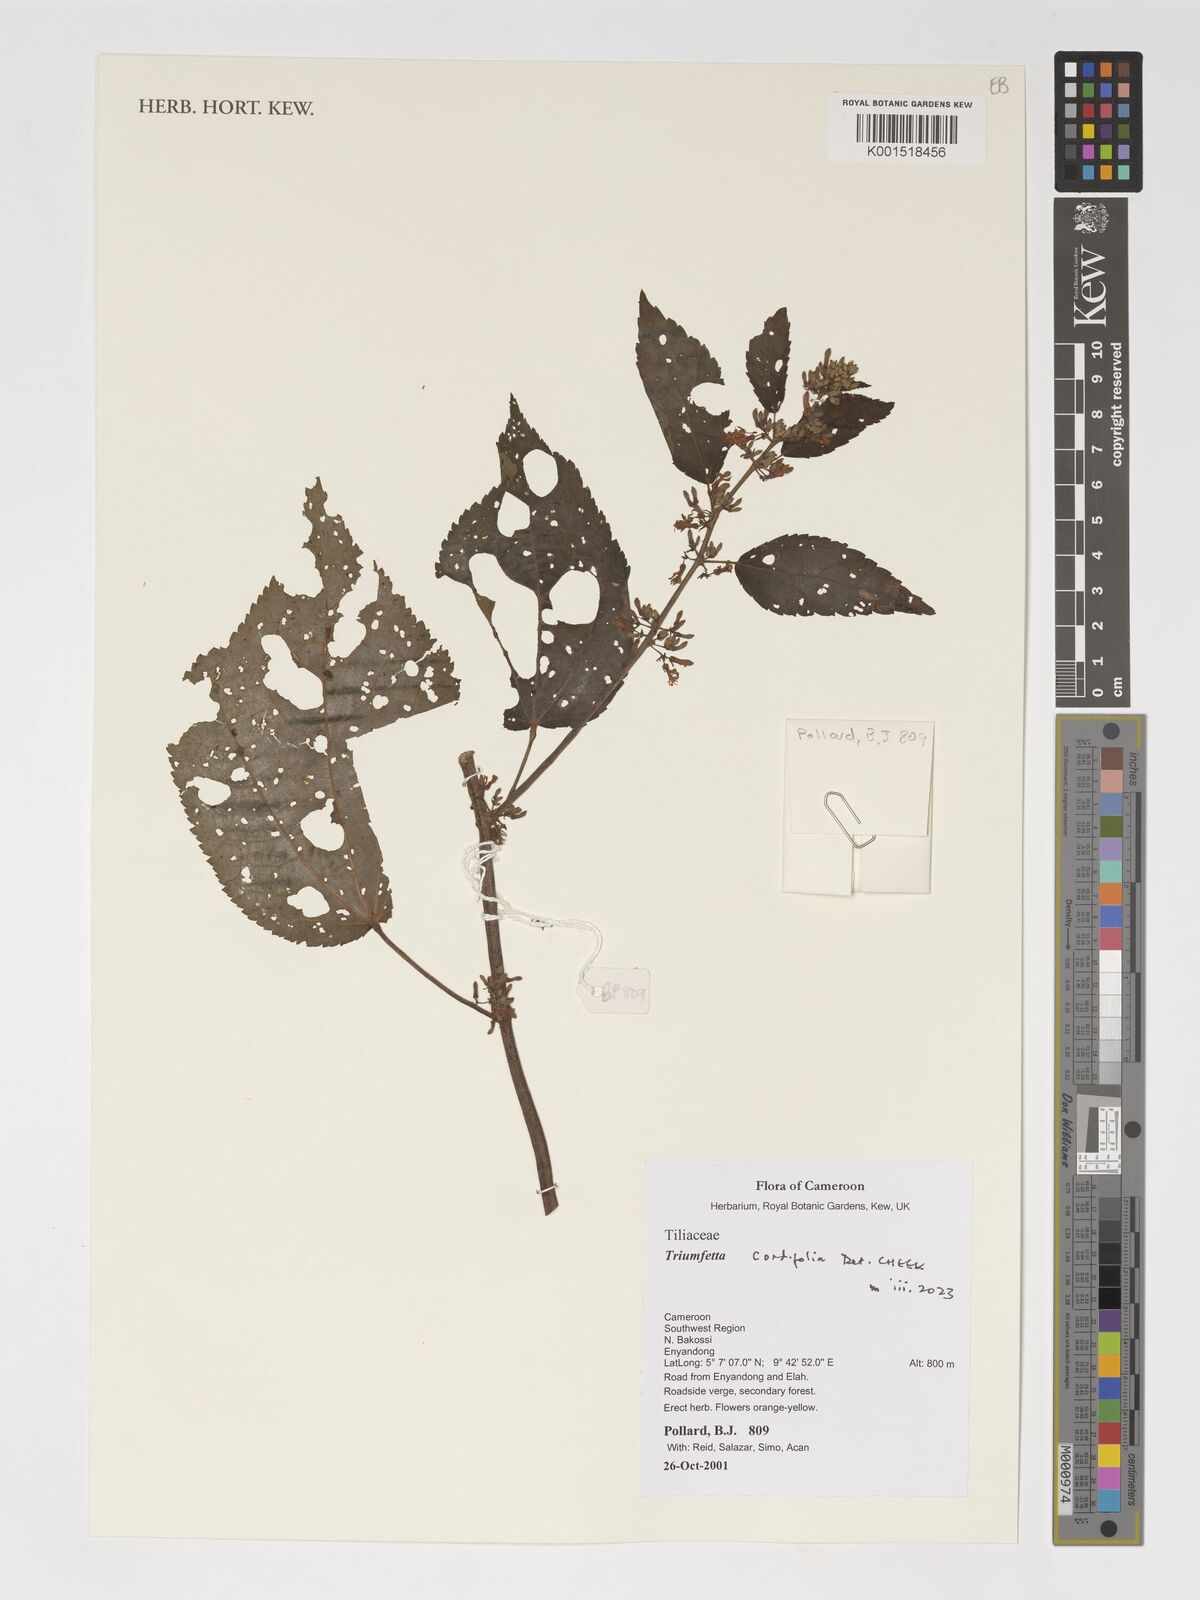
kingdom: Plantae
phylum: Tracheophyta
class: Magnoliopsida
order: Malvales
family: Malvaceae
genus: Triumfetta
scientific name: Triumfetta cordifolia
